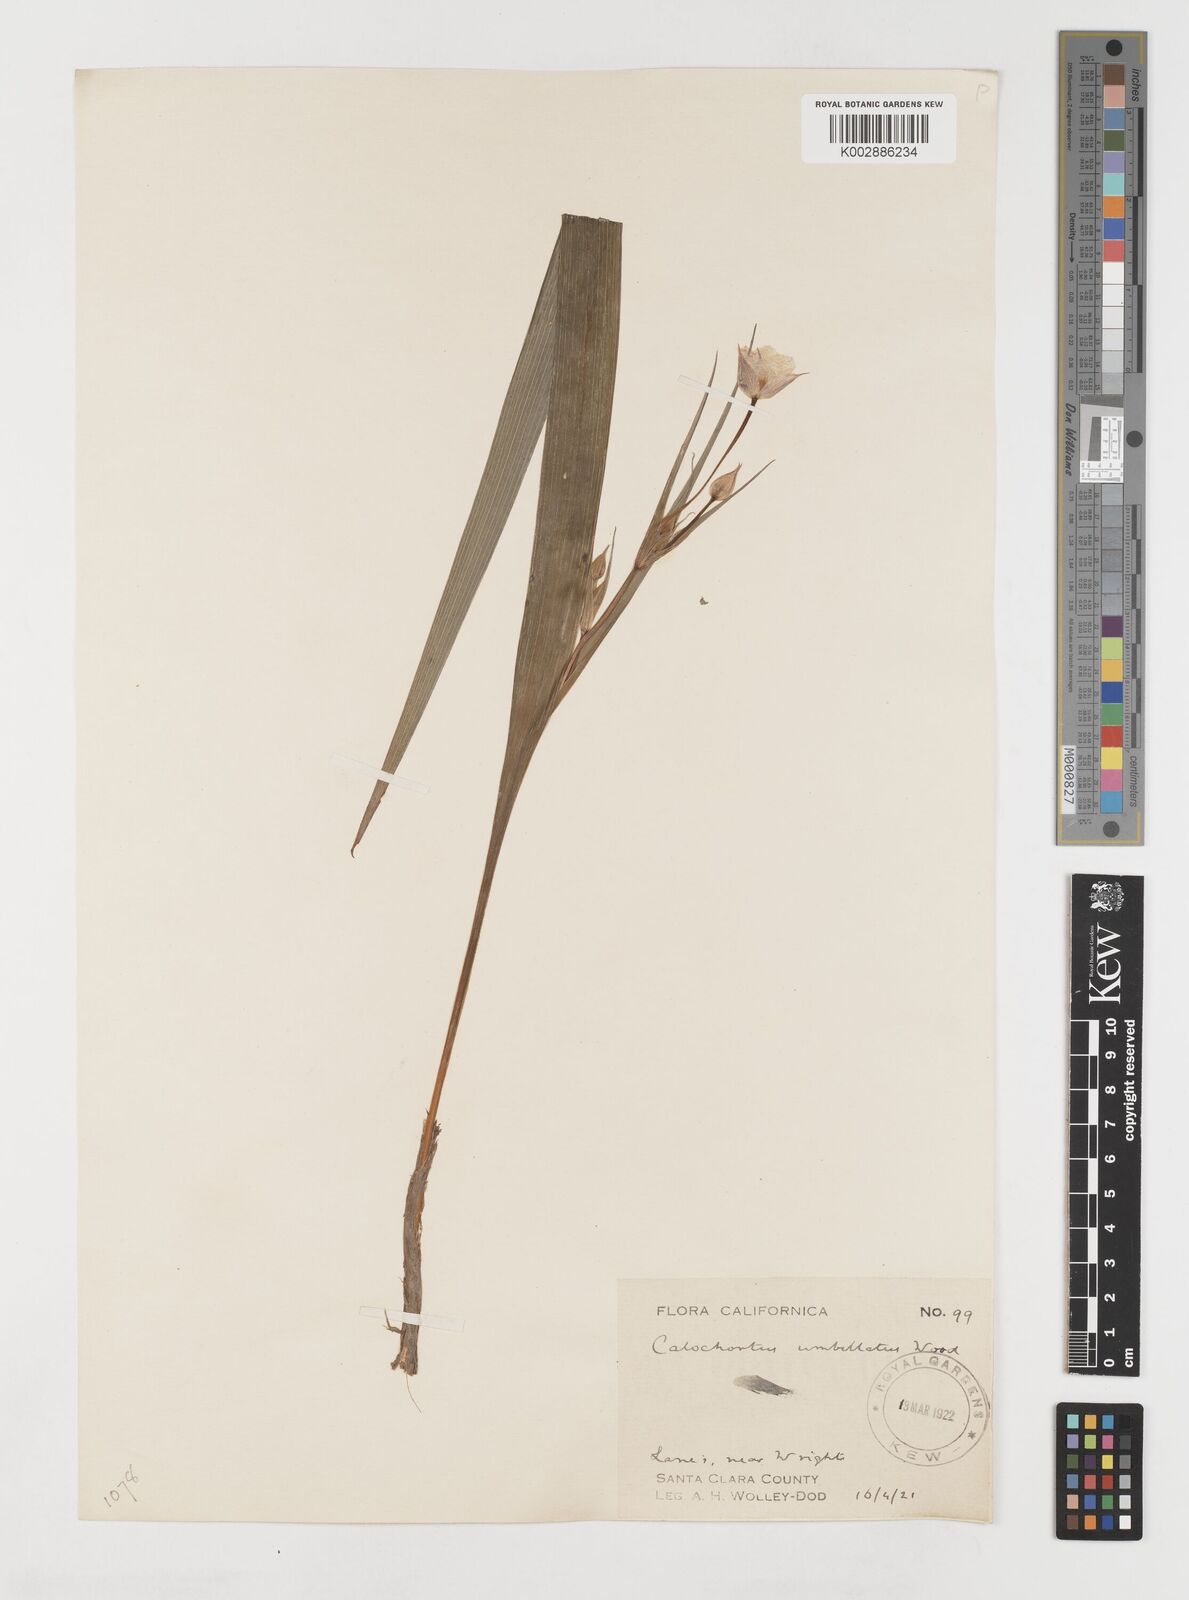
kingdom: Plantae
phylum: Tracheophyta
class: Liliopsida
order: Liliales
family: Liliaceae
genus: Calochortus
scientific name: Calochortus umbellatus
